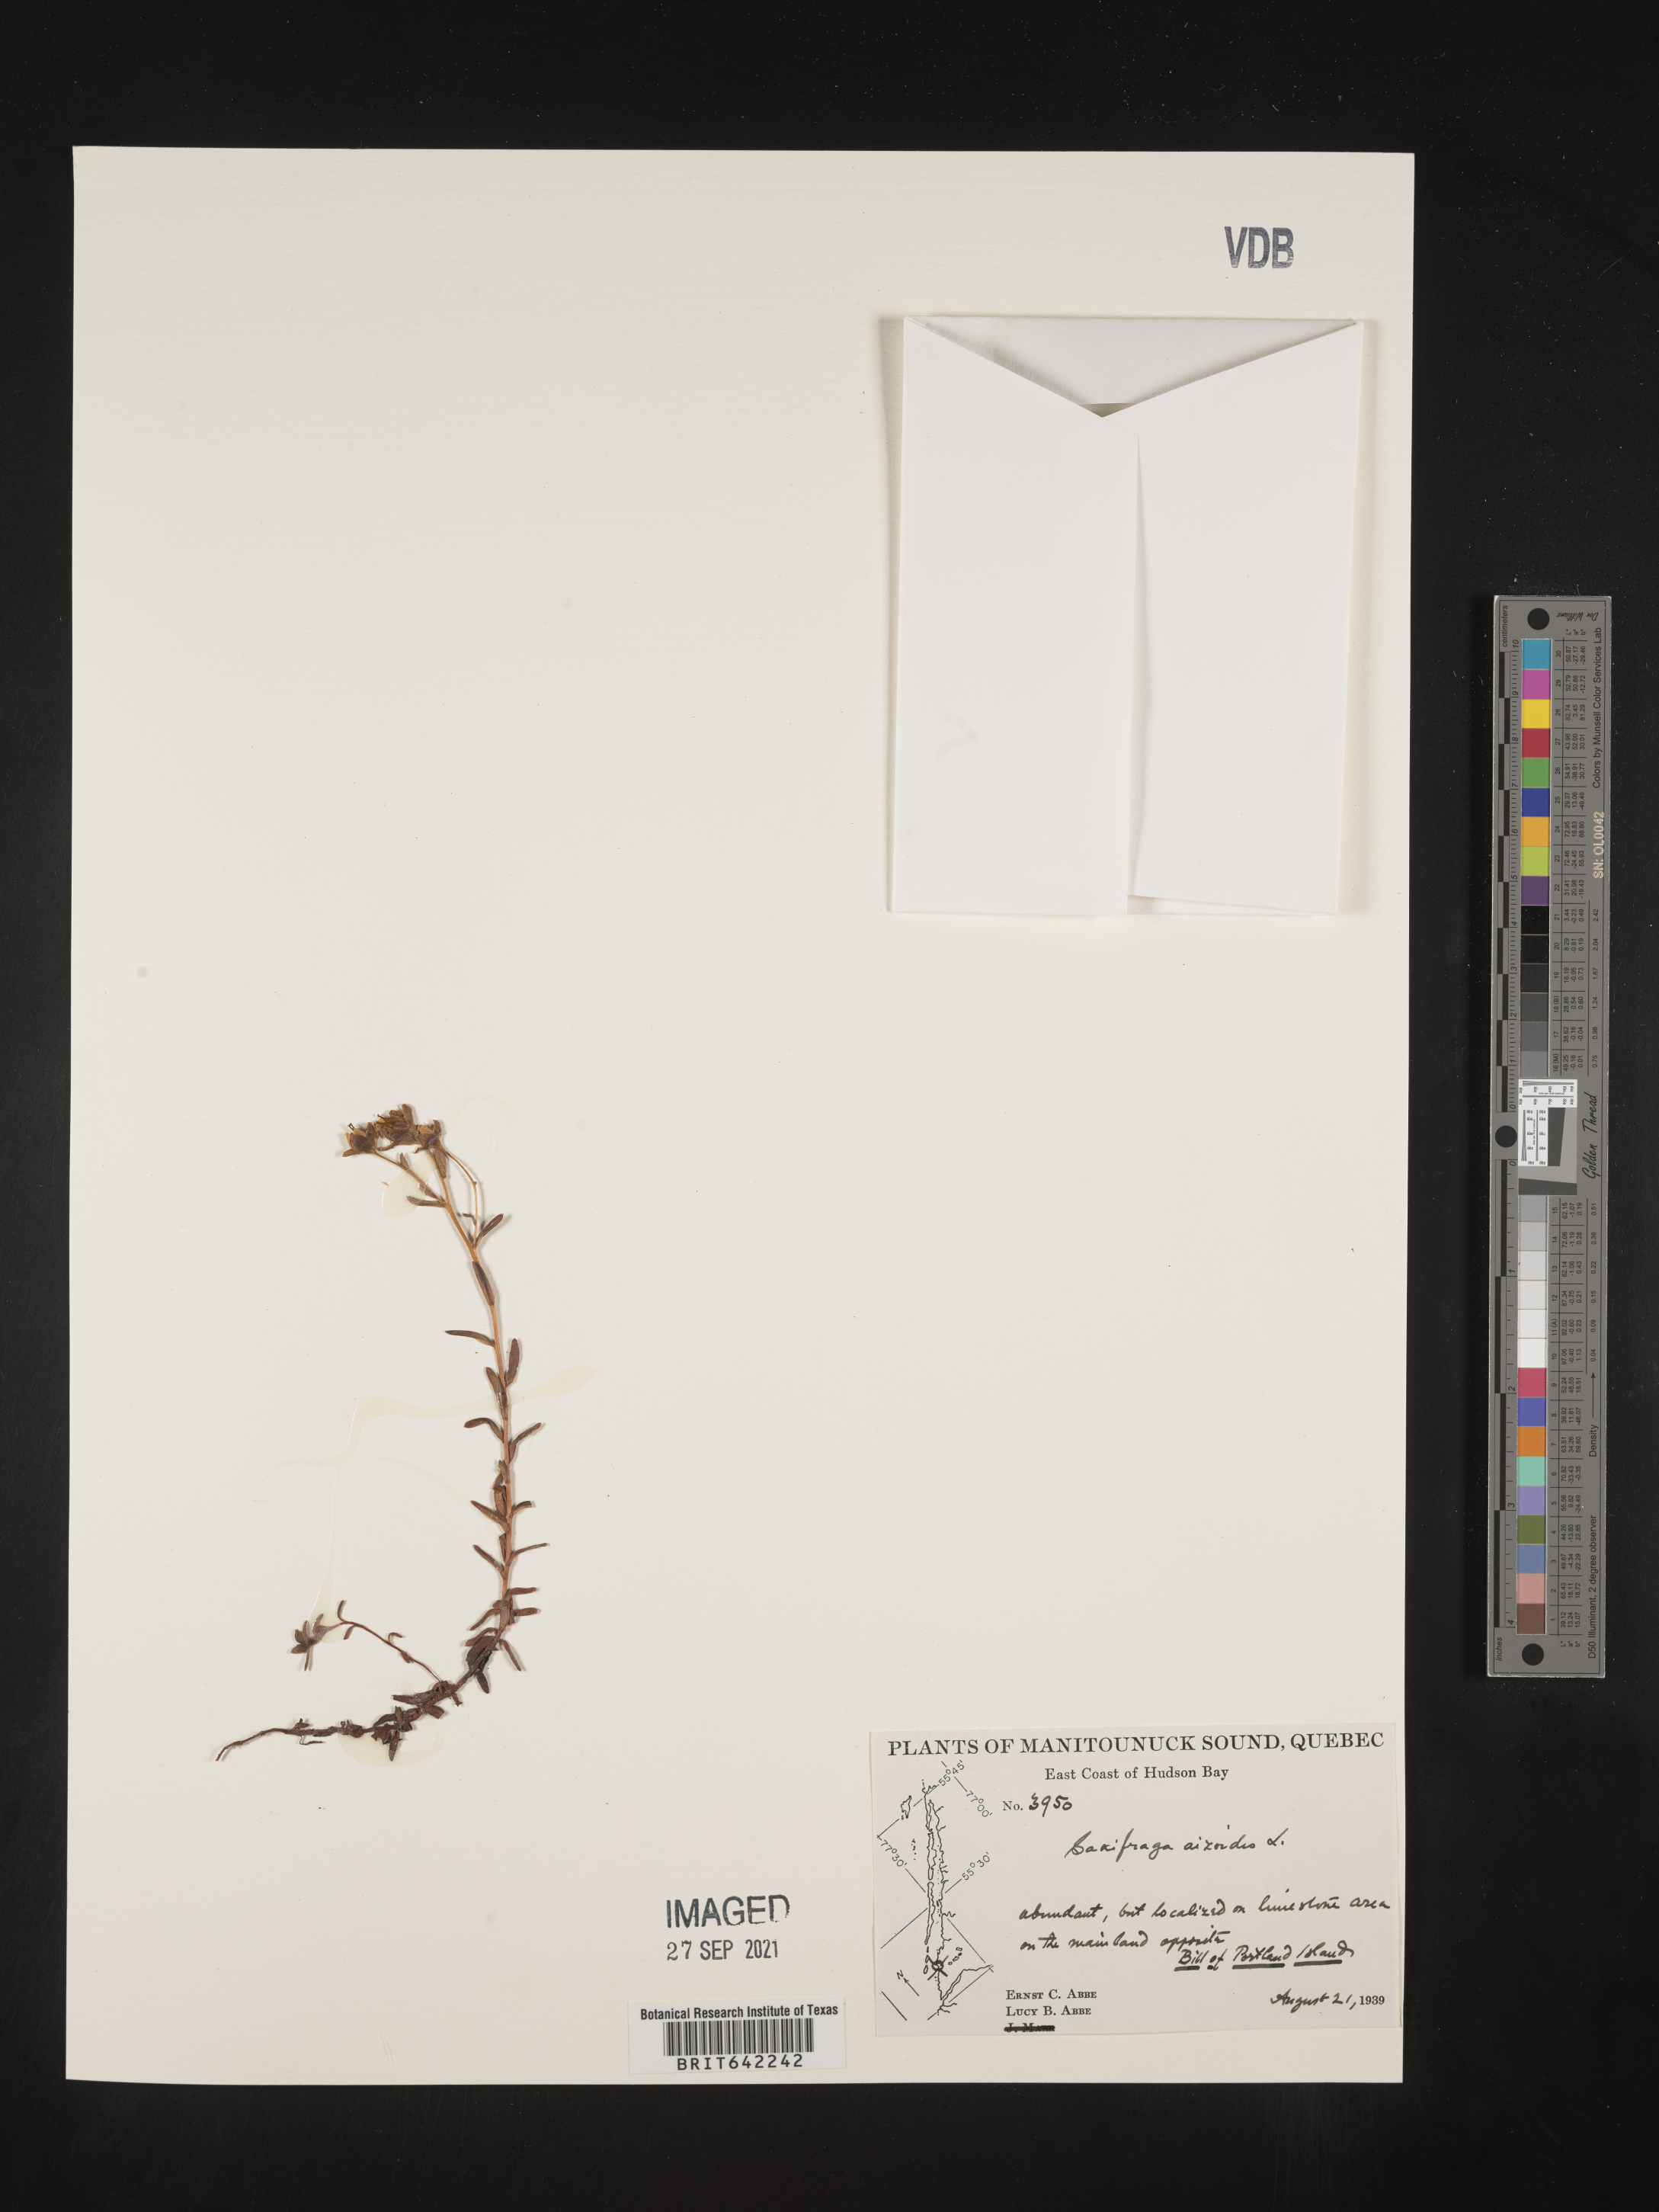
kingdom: Plantae
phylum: Tracheophyta
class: Magnoliopsida
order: Saxifragales
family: Saxifragaceae
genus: Saxifraga
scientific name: Saxifraga
